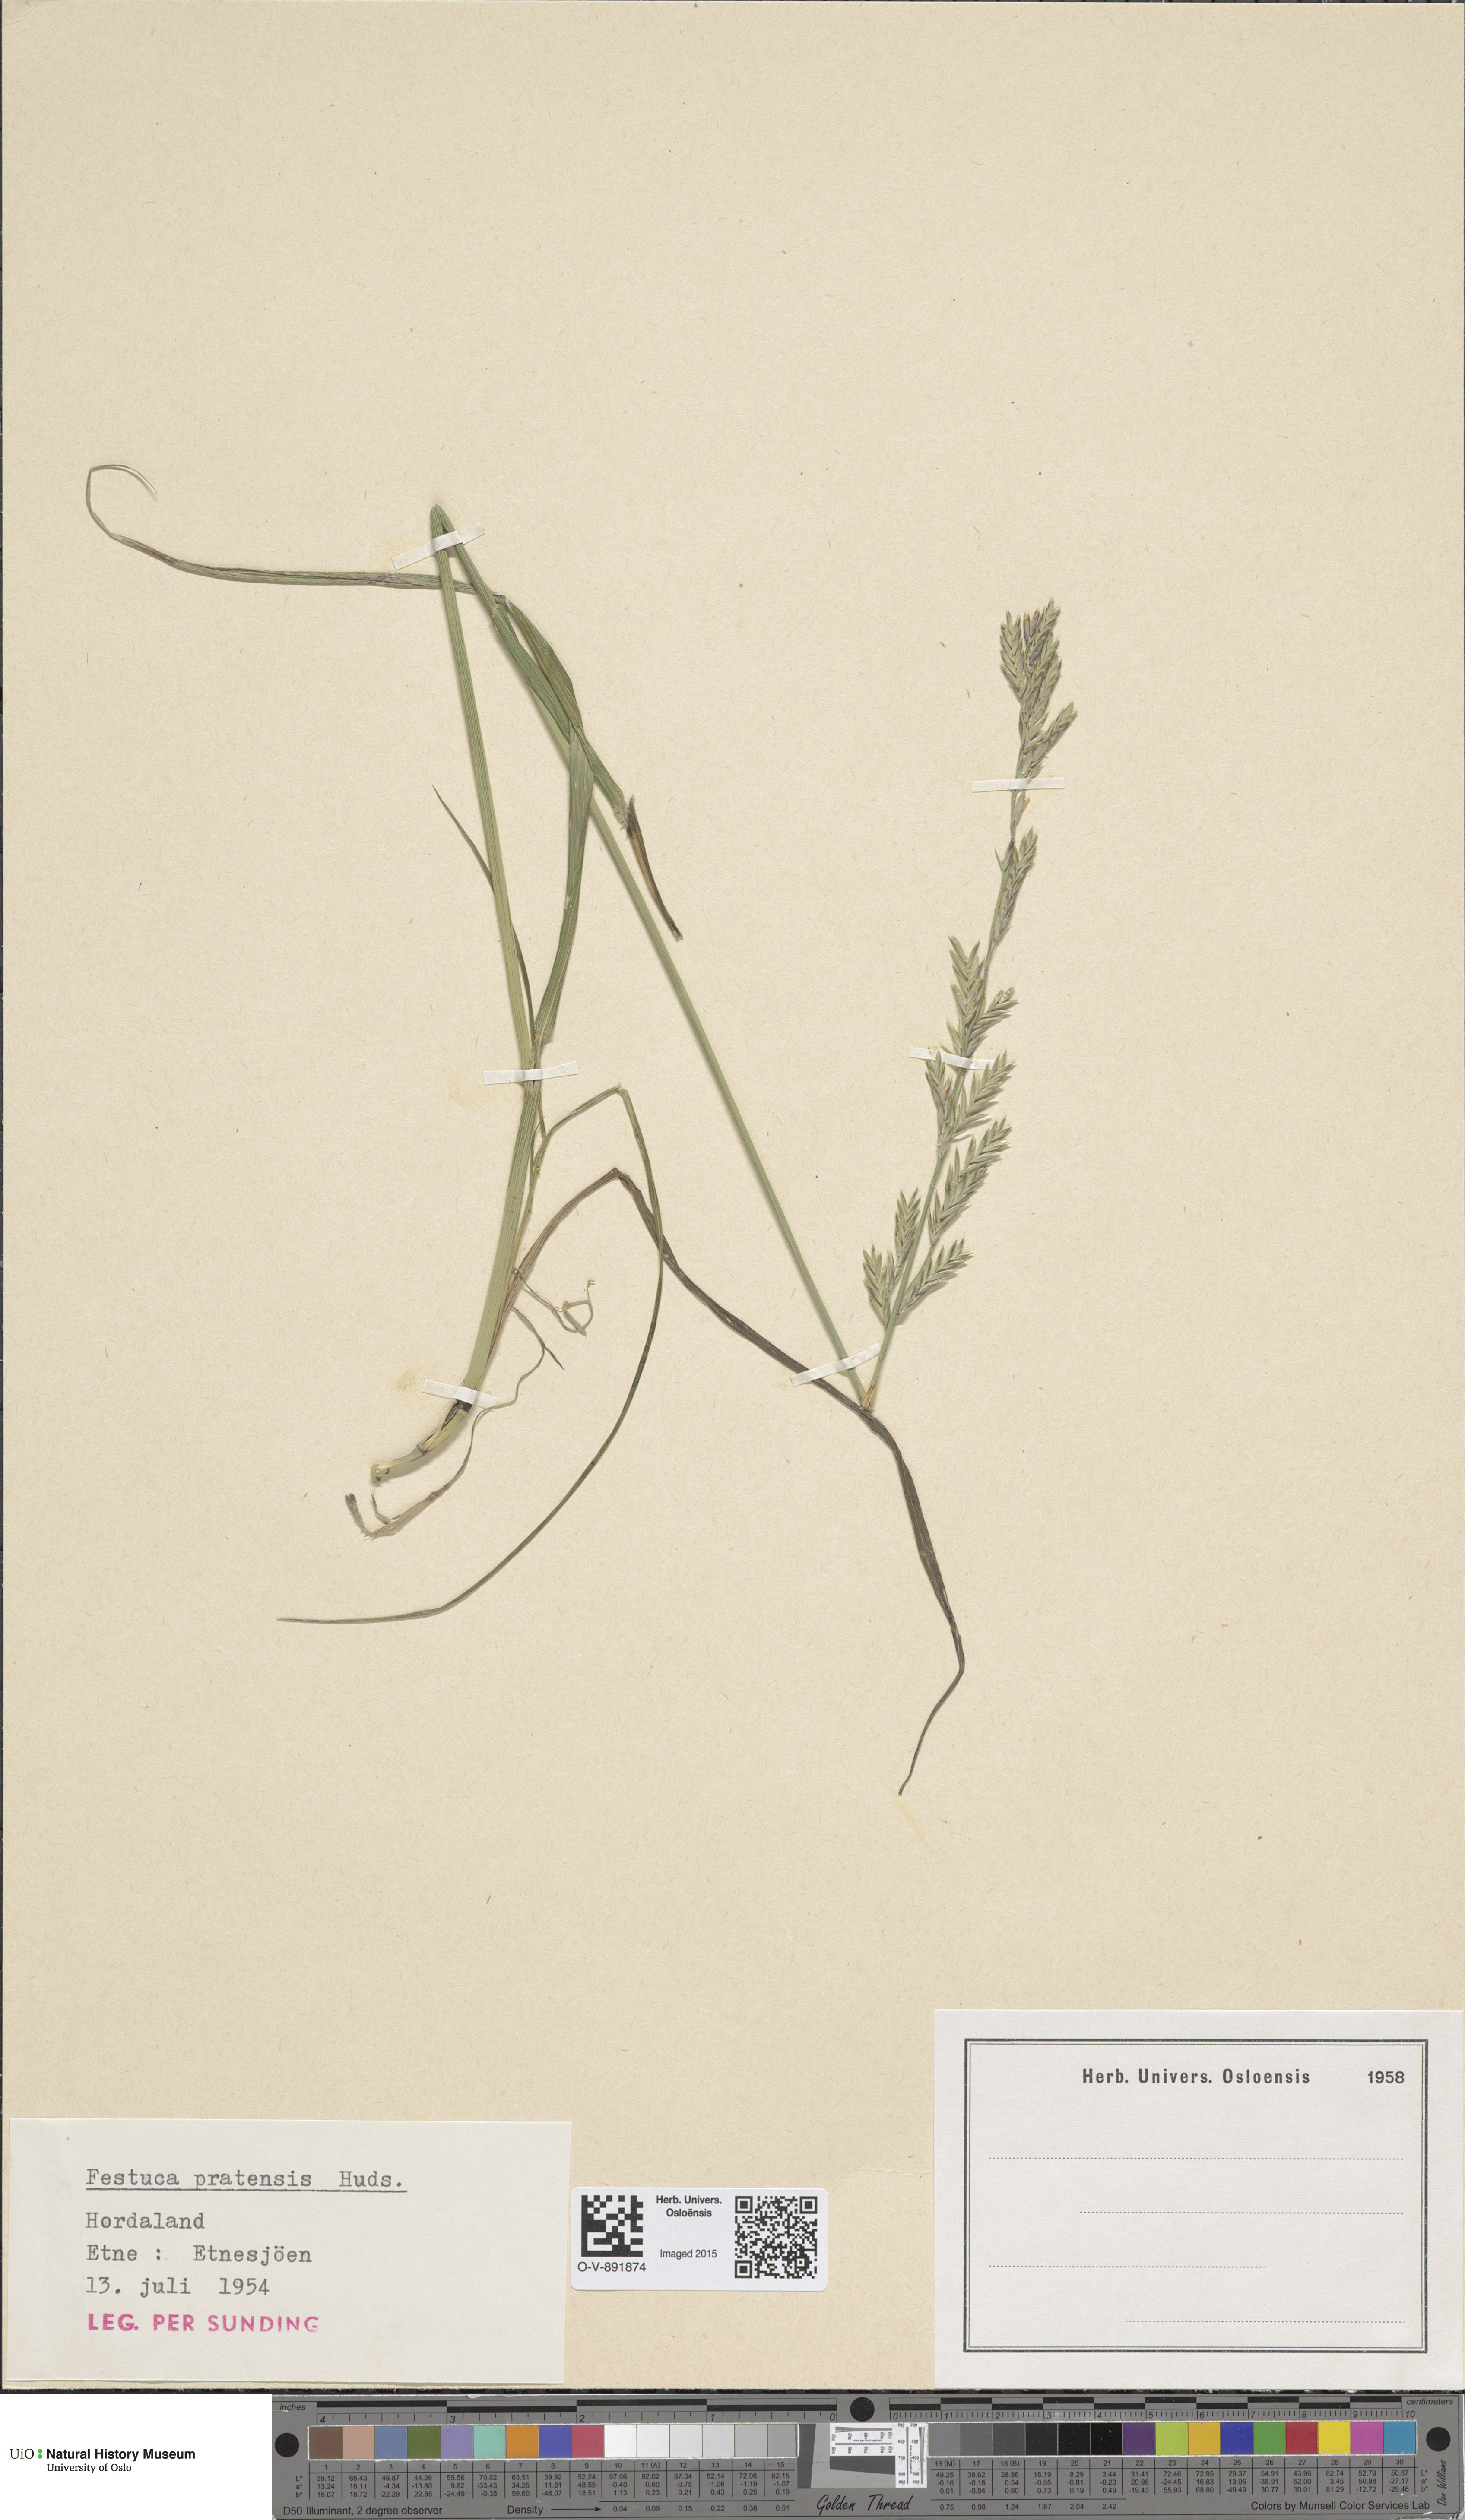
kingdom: Plantae
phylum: Tracheophyta
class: Liliopsida
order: Poales
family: Poaceae
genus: Lolium
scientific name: Lolium pratense
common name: Dover grass
